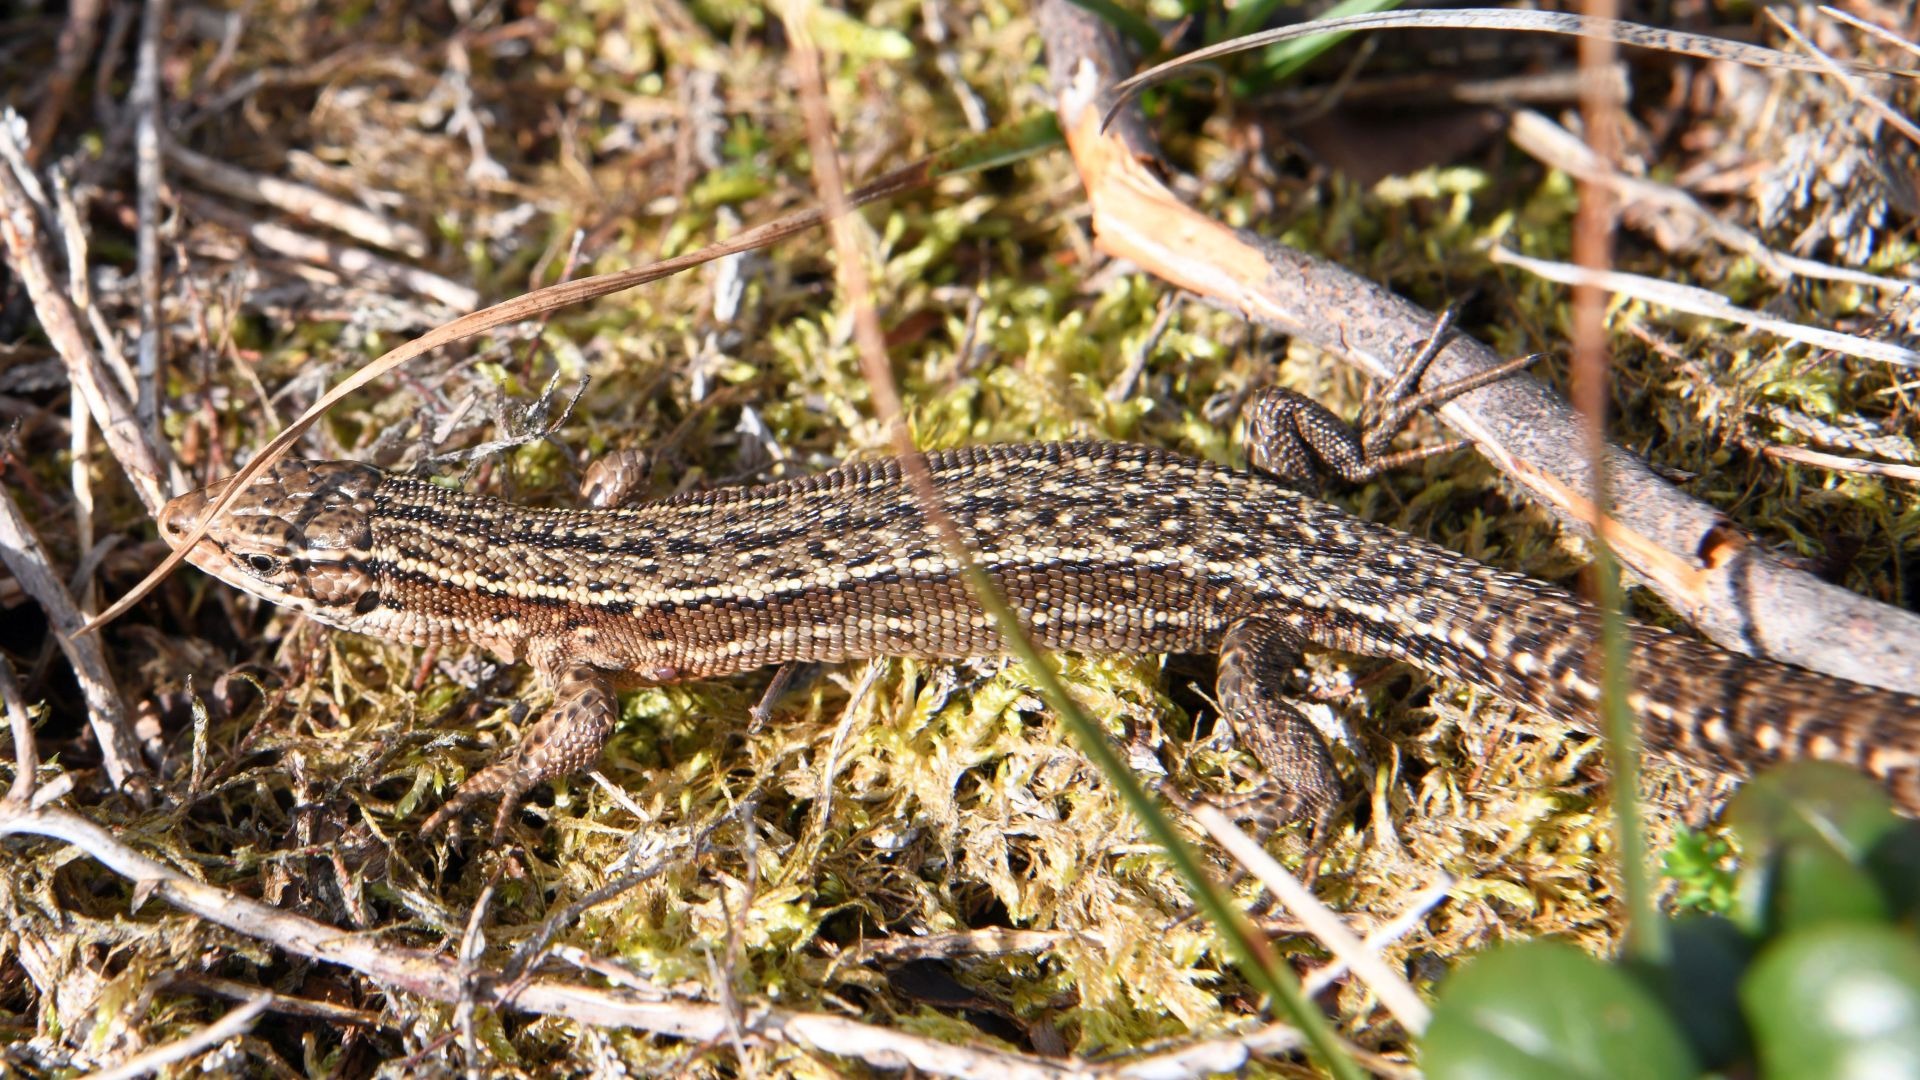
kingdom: Animalia
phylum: Chordata
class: Squamata
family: Lacertidae
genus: Zootoca
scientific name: Zootoca vivipara
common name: Skovfirben
